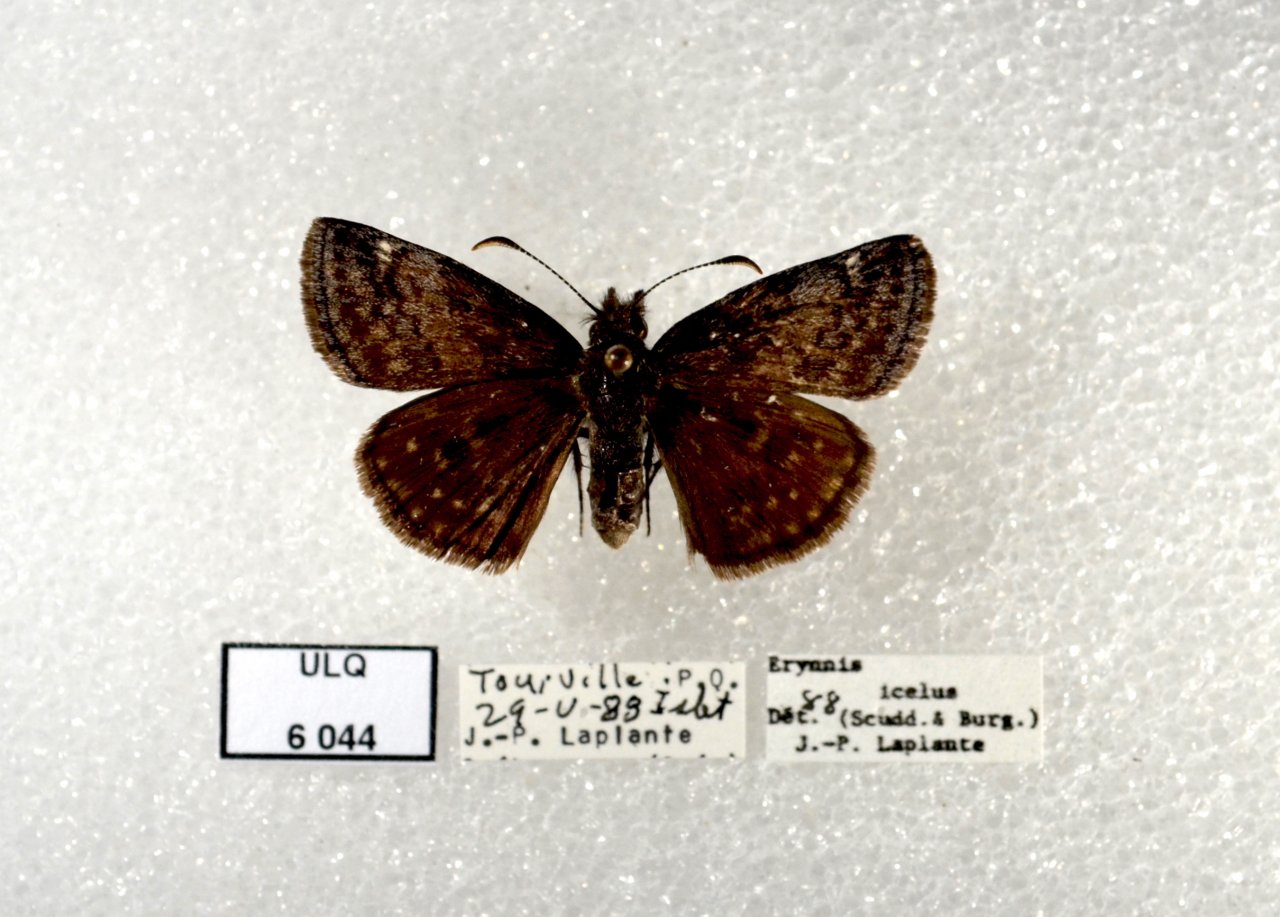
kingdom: Animalia
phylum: Arthropoda
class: Insecta
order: Lepidoptera
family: Hesperiidae
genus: Erynnis
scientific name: Erynnis icelus
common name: Dreamy Duskywing
